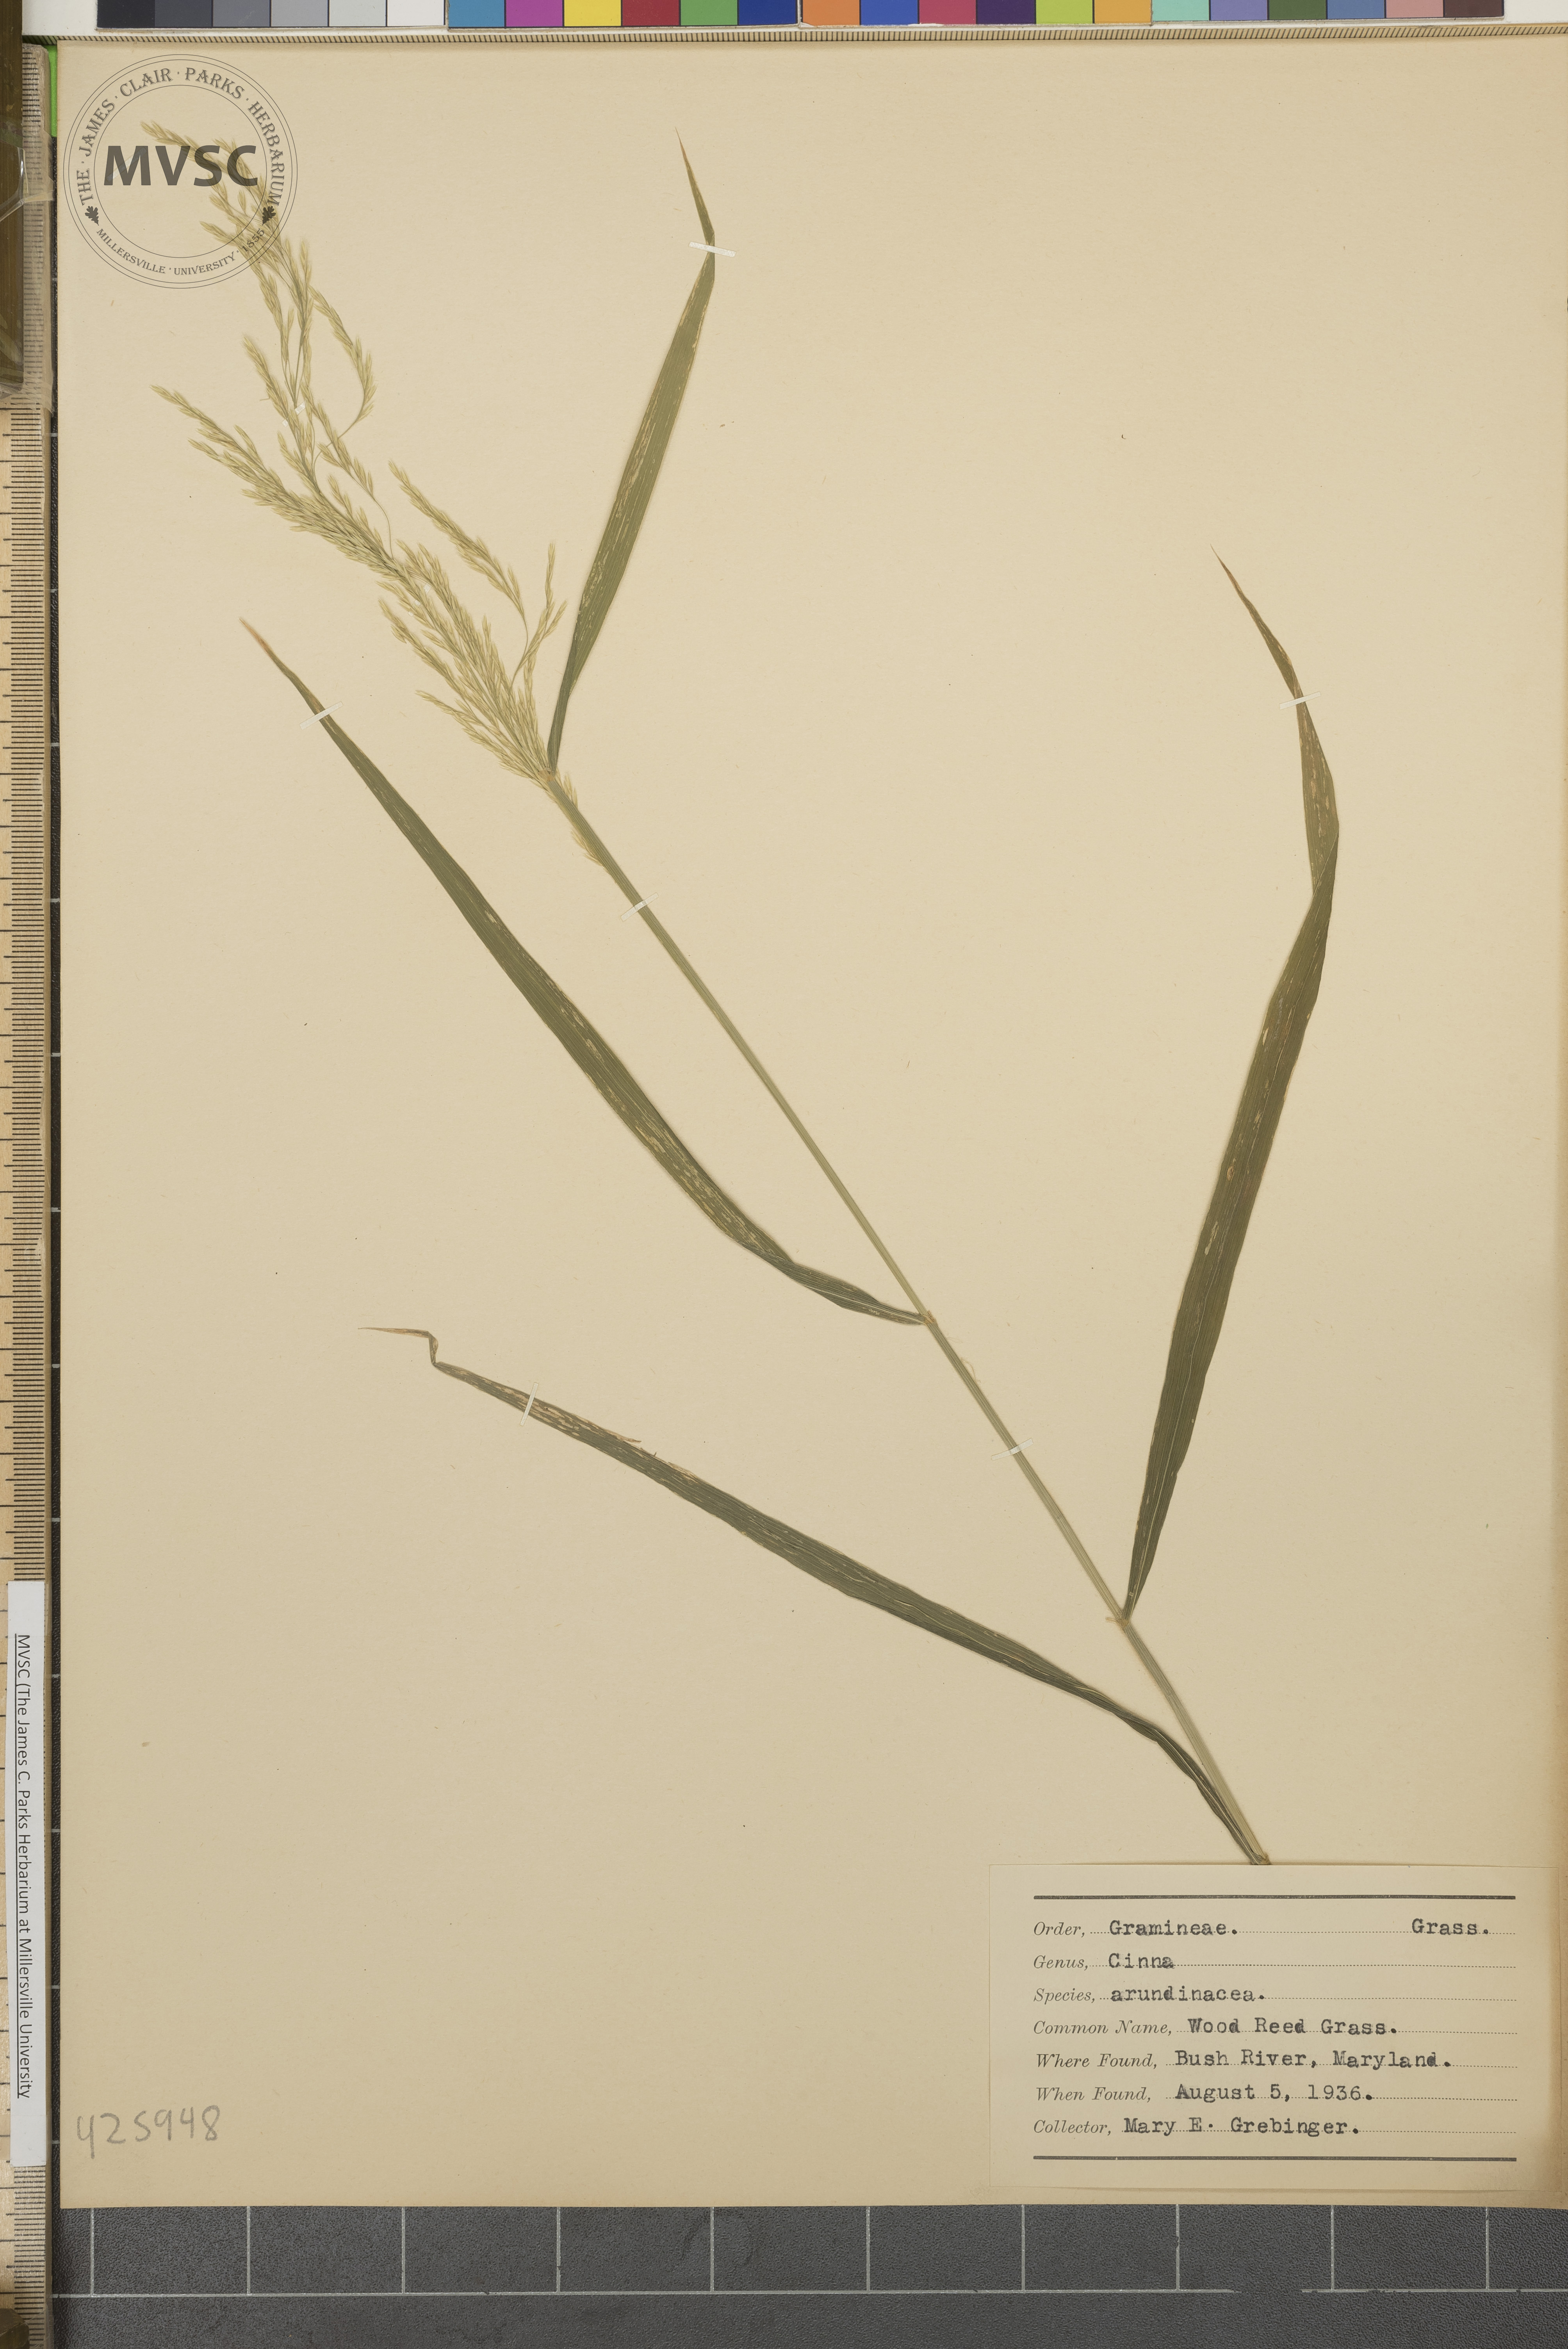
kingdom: Plantae
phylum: Tracheophyta
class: Liliopsida
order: Poales
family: Poaceae
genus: Cinna
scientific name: Cinna arundinacea
